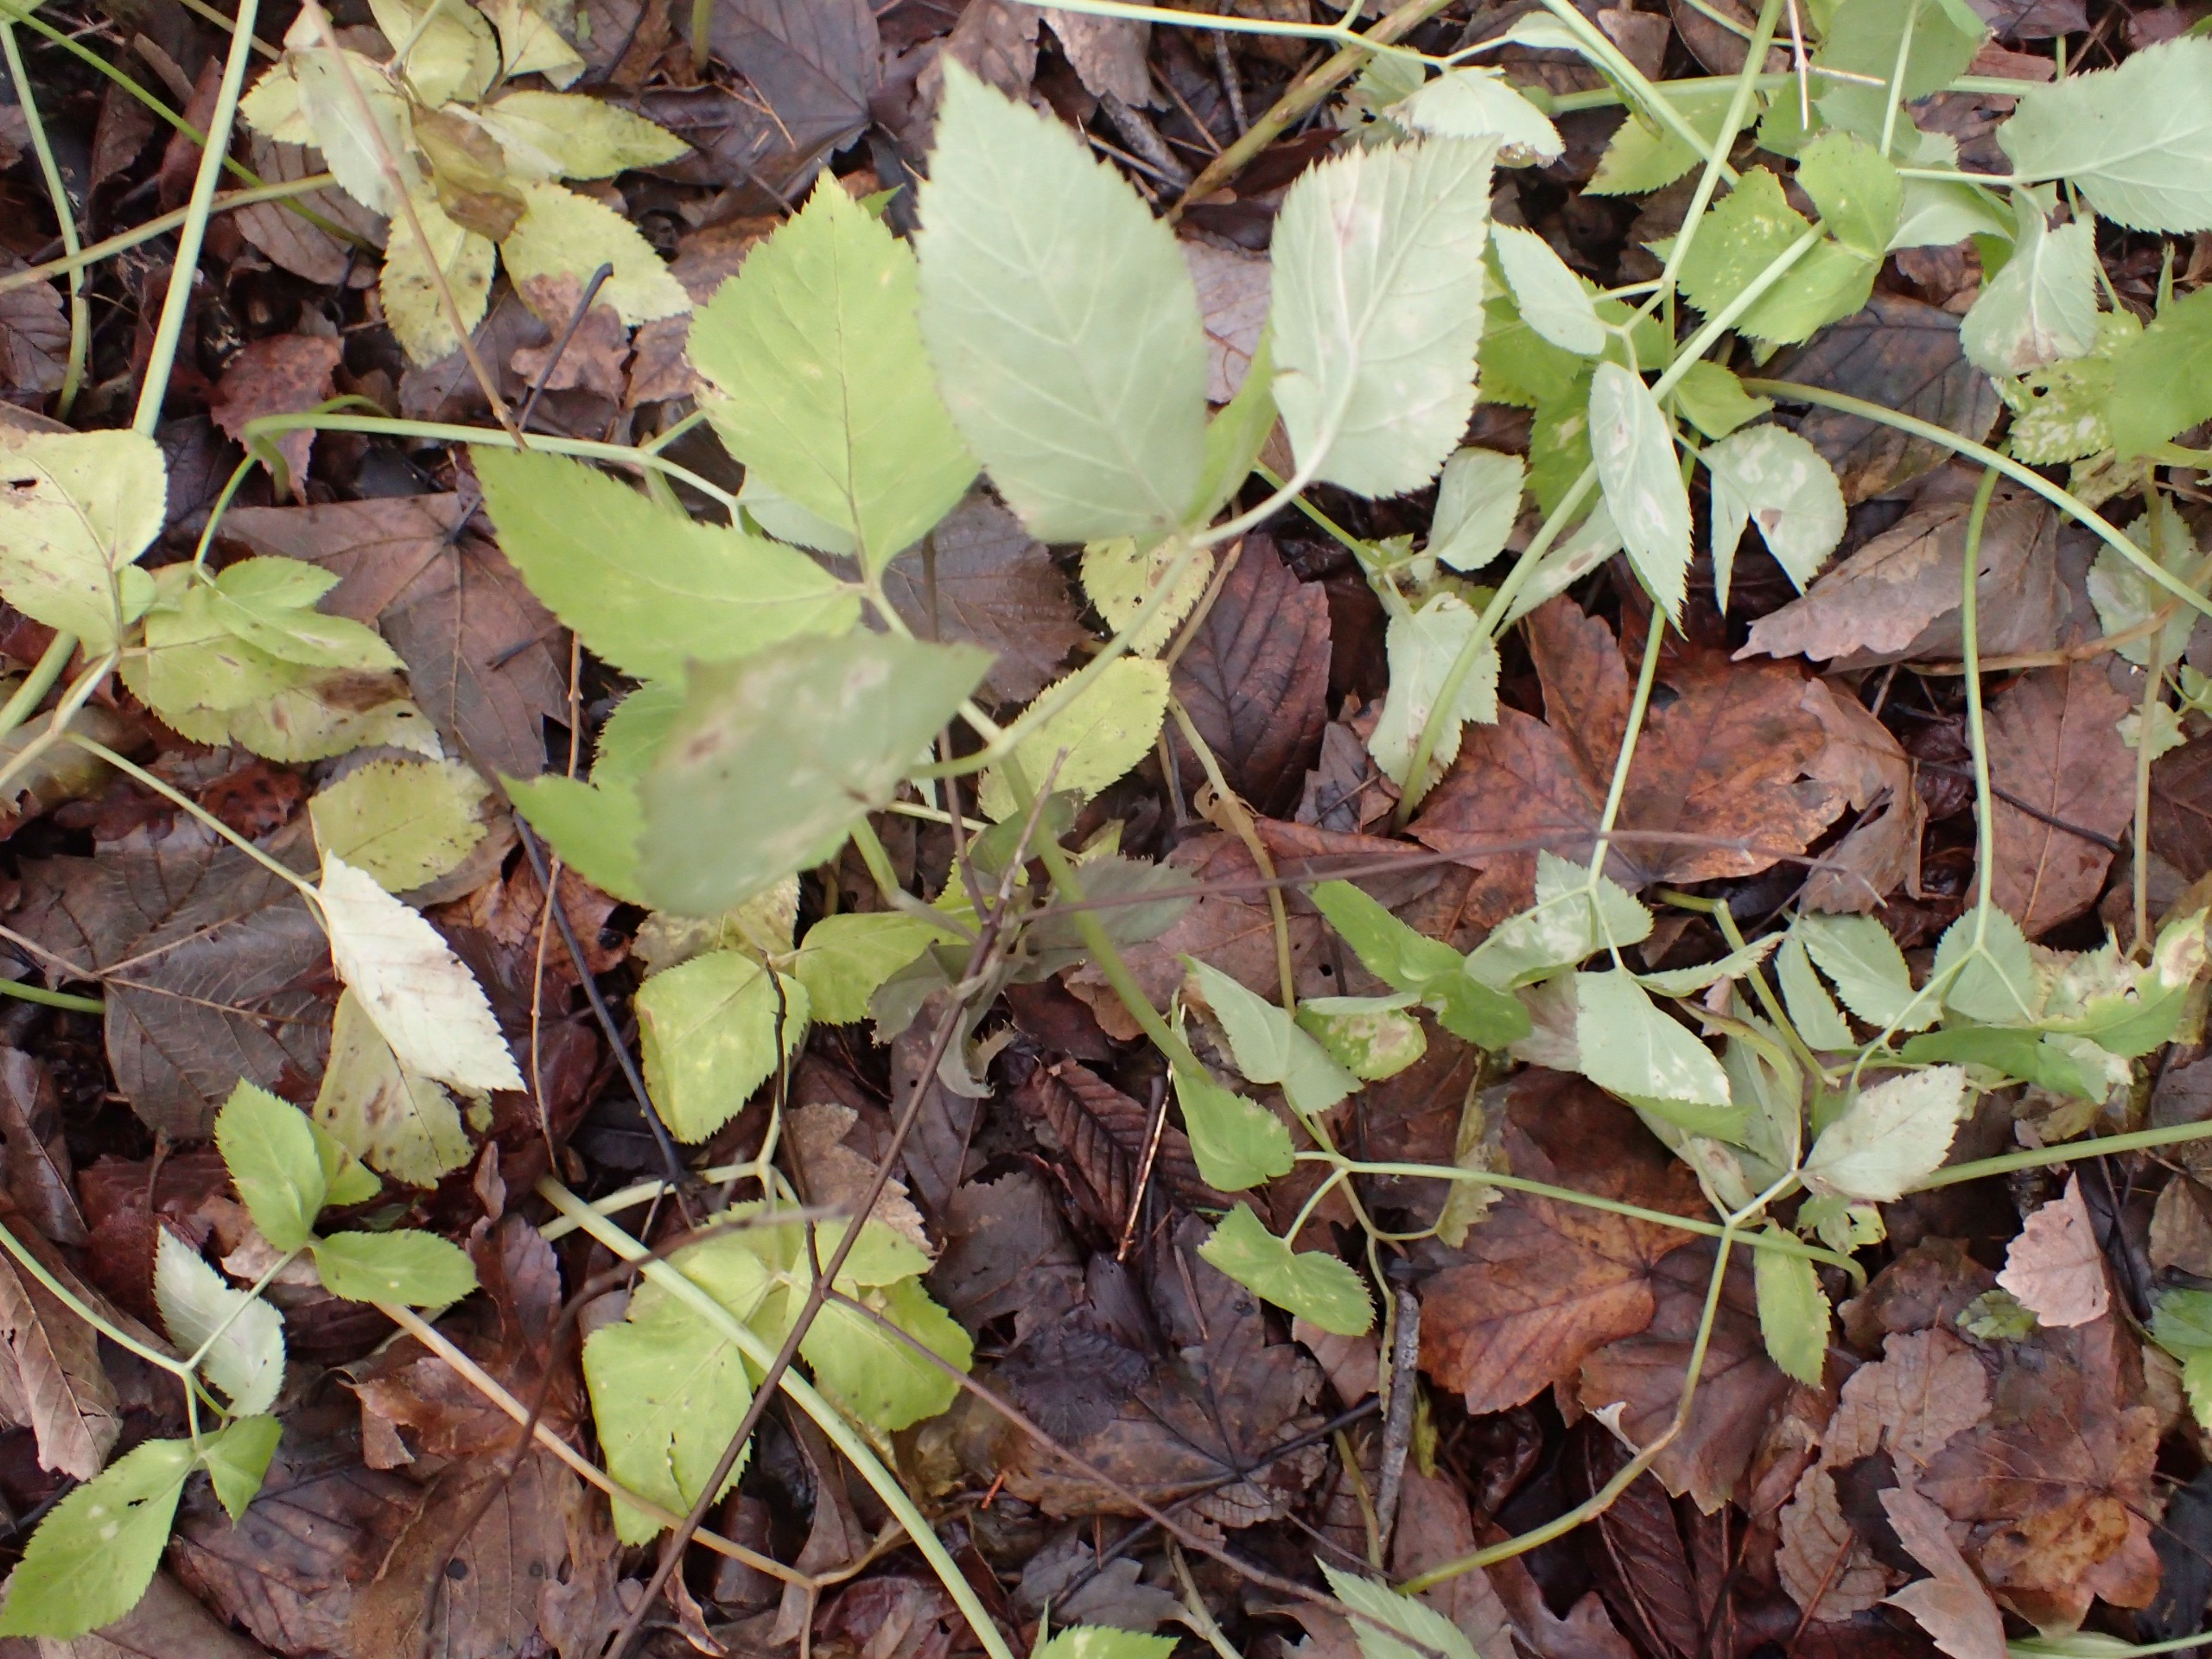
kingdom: Plantae
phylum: Tracheophyta
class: Magnoliopsida
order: Apiales
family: Apiaceae
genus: Aegopodium
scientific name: Aegopodium podagraria
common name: Skvalderkål
